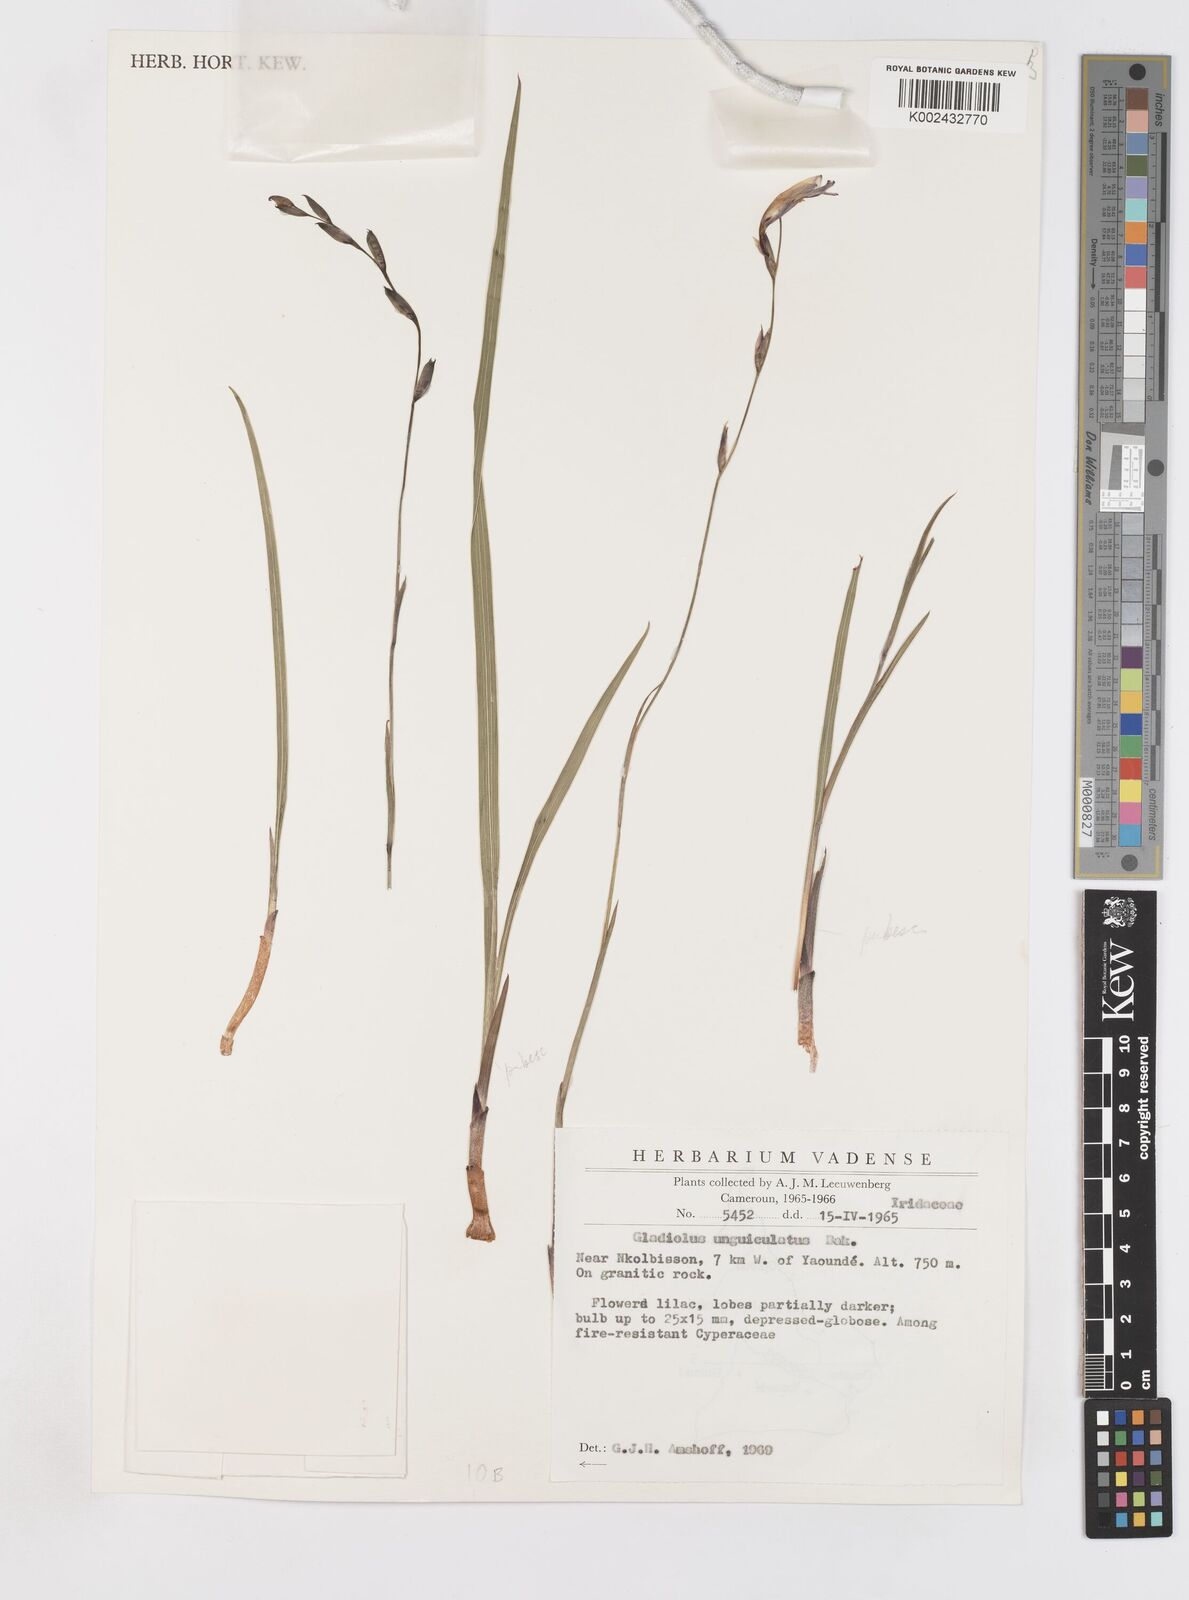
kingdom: Plantae
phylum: Tracheophyta
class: Liliopsida
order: Asparagales
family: Iridaceae
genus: Gladiolus
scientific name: Gladiolus unguiculatus
